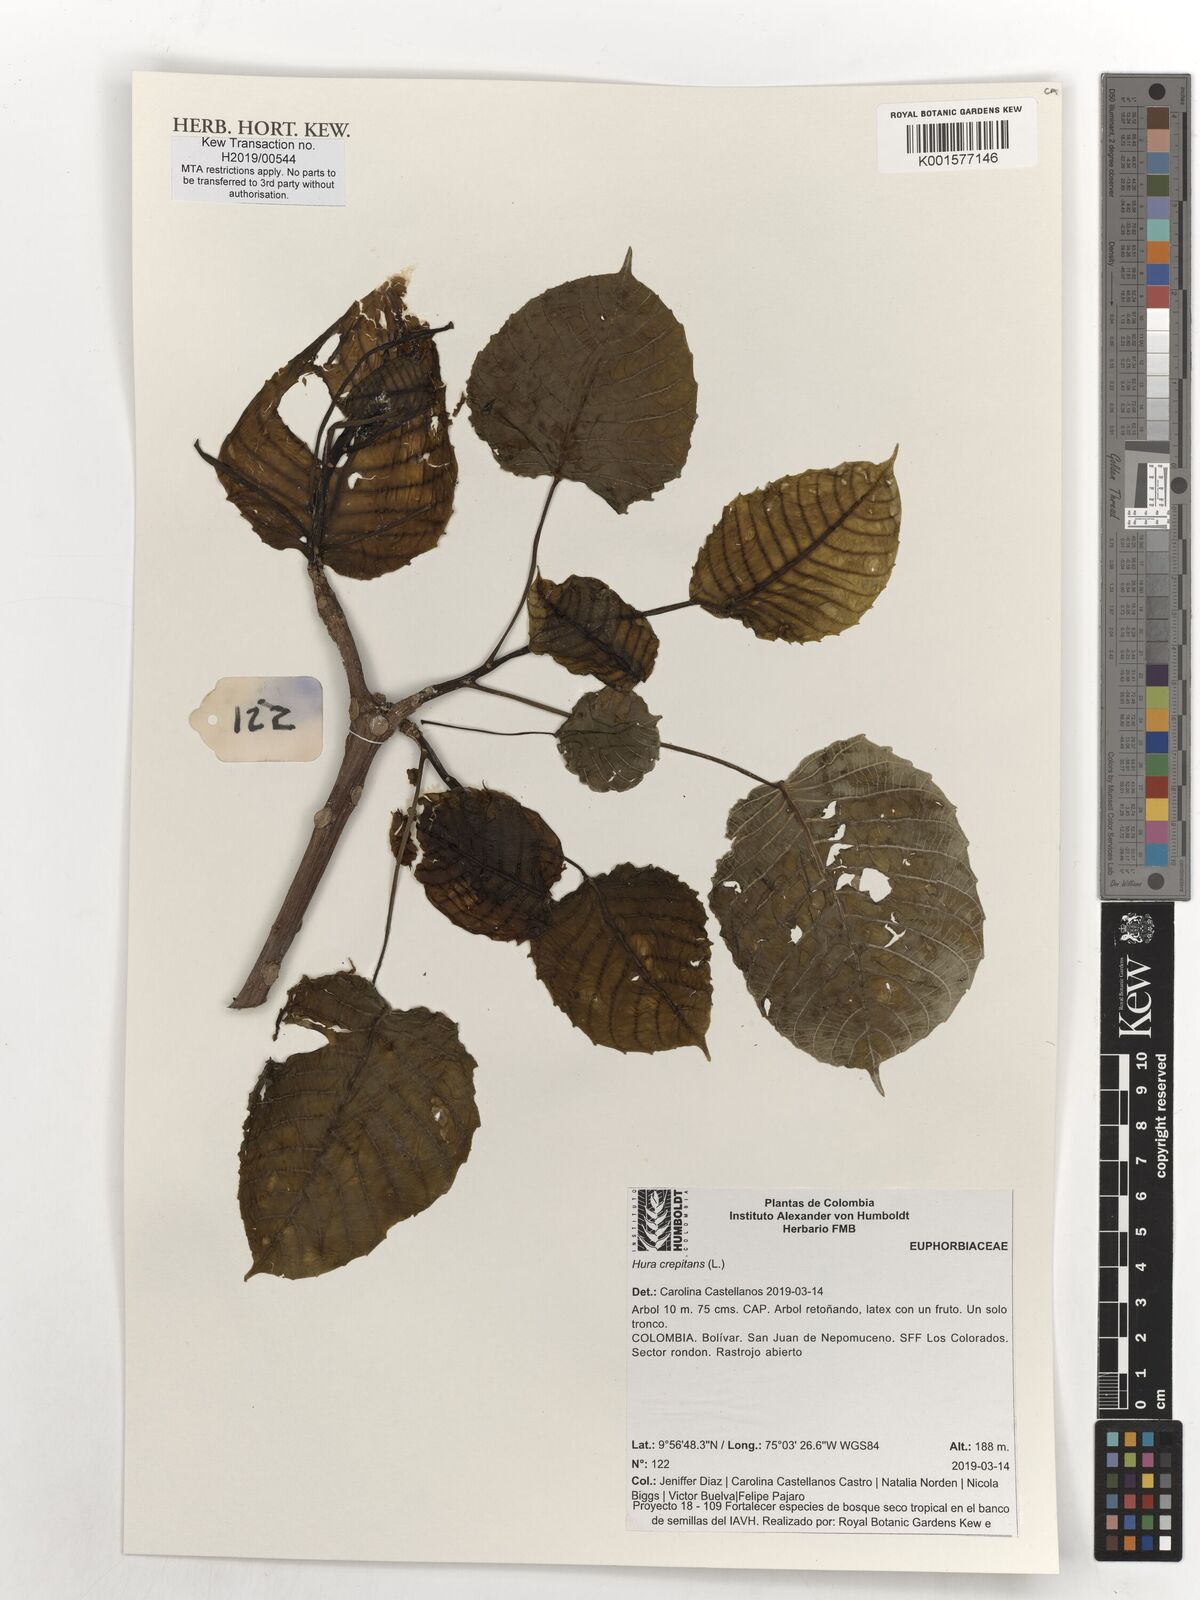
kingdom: Plantae
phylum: Tracheophyta
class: Magnoliopsida
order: Malpighiales
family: Euphorbiaceae
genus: Hura
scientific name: Hura crepitans
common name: Sandboxtree
